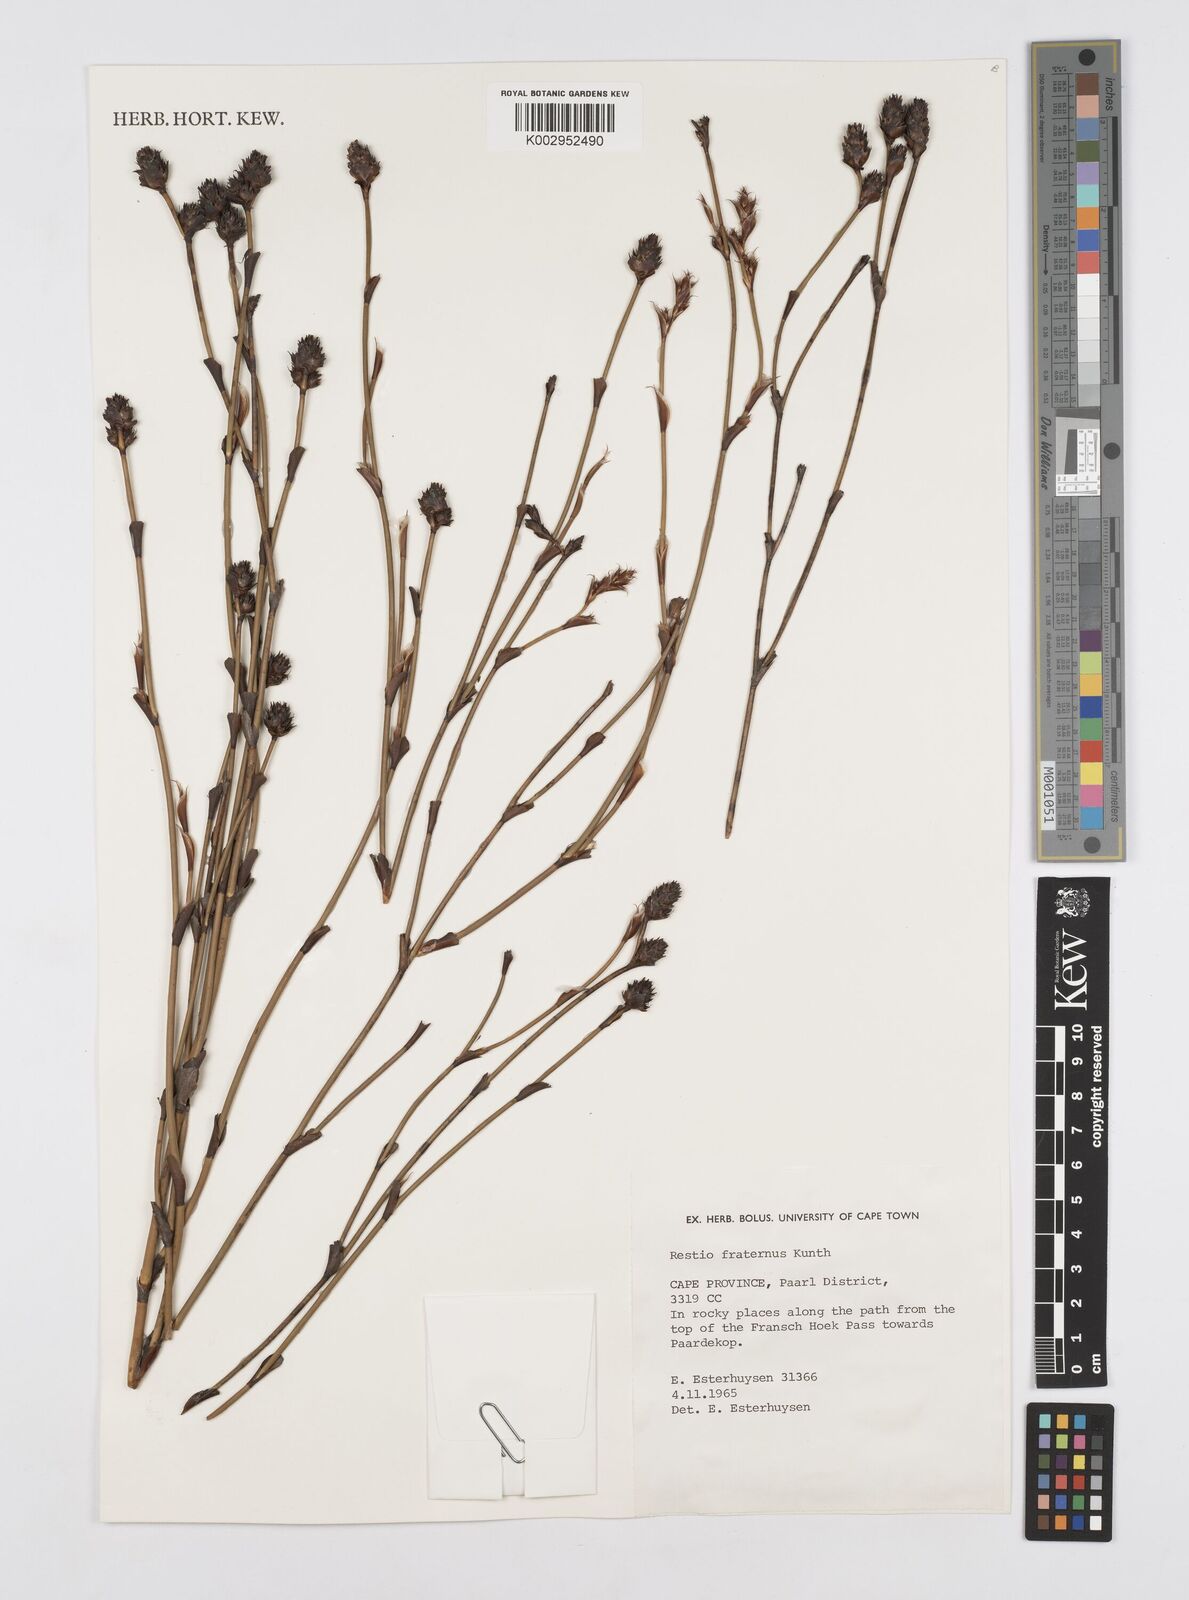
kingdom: Plantae
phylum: Tracheophyta
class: Liliopsida
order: Poales
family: Restionaceae
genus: Restio
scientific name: Restio fraternus
